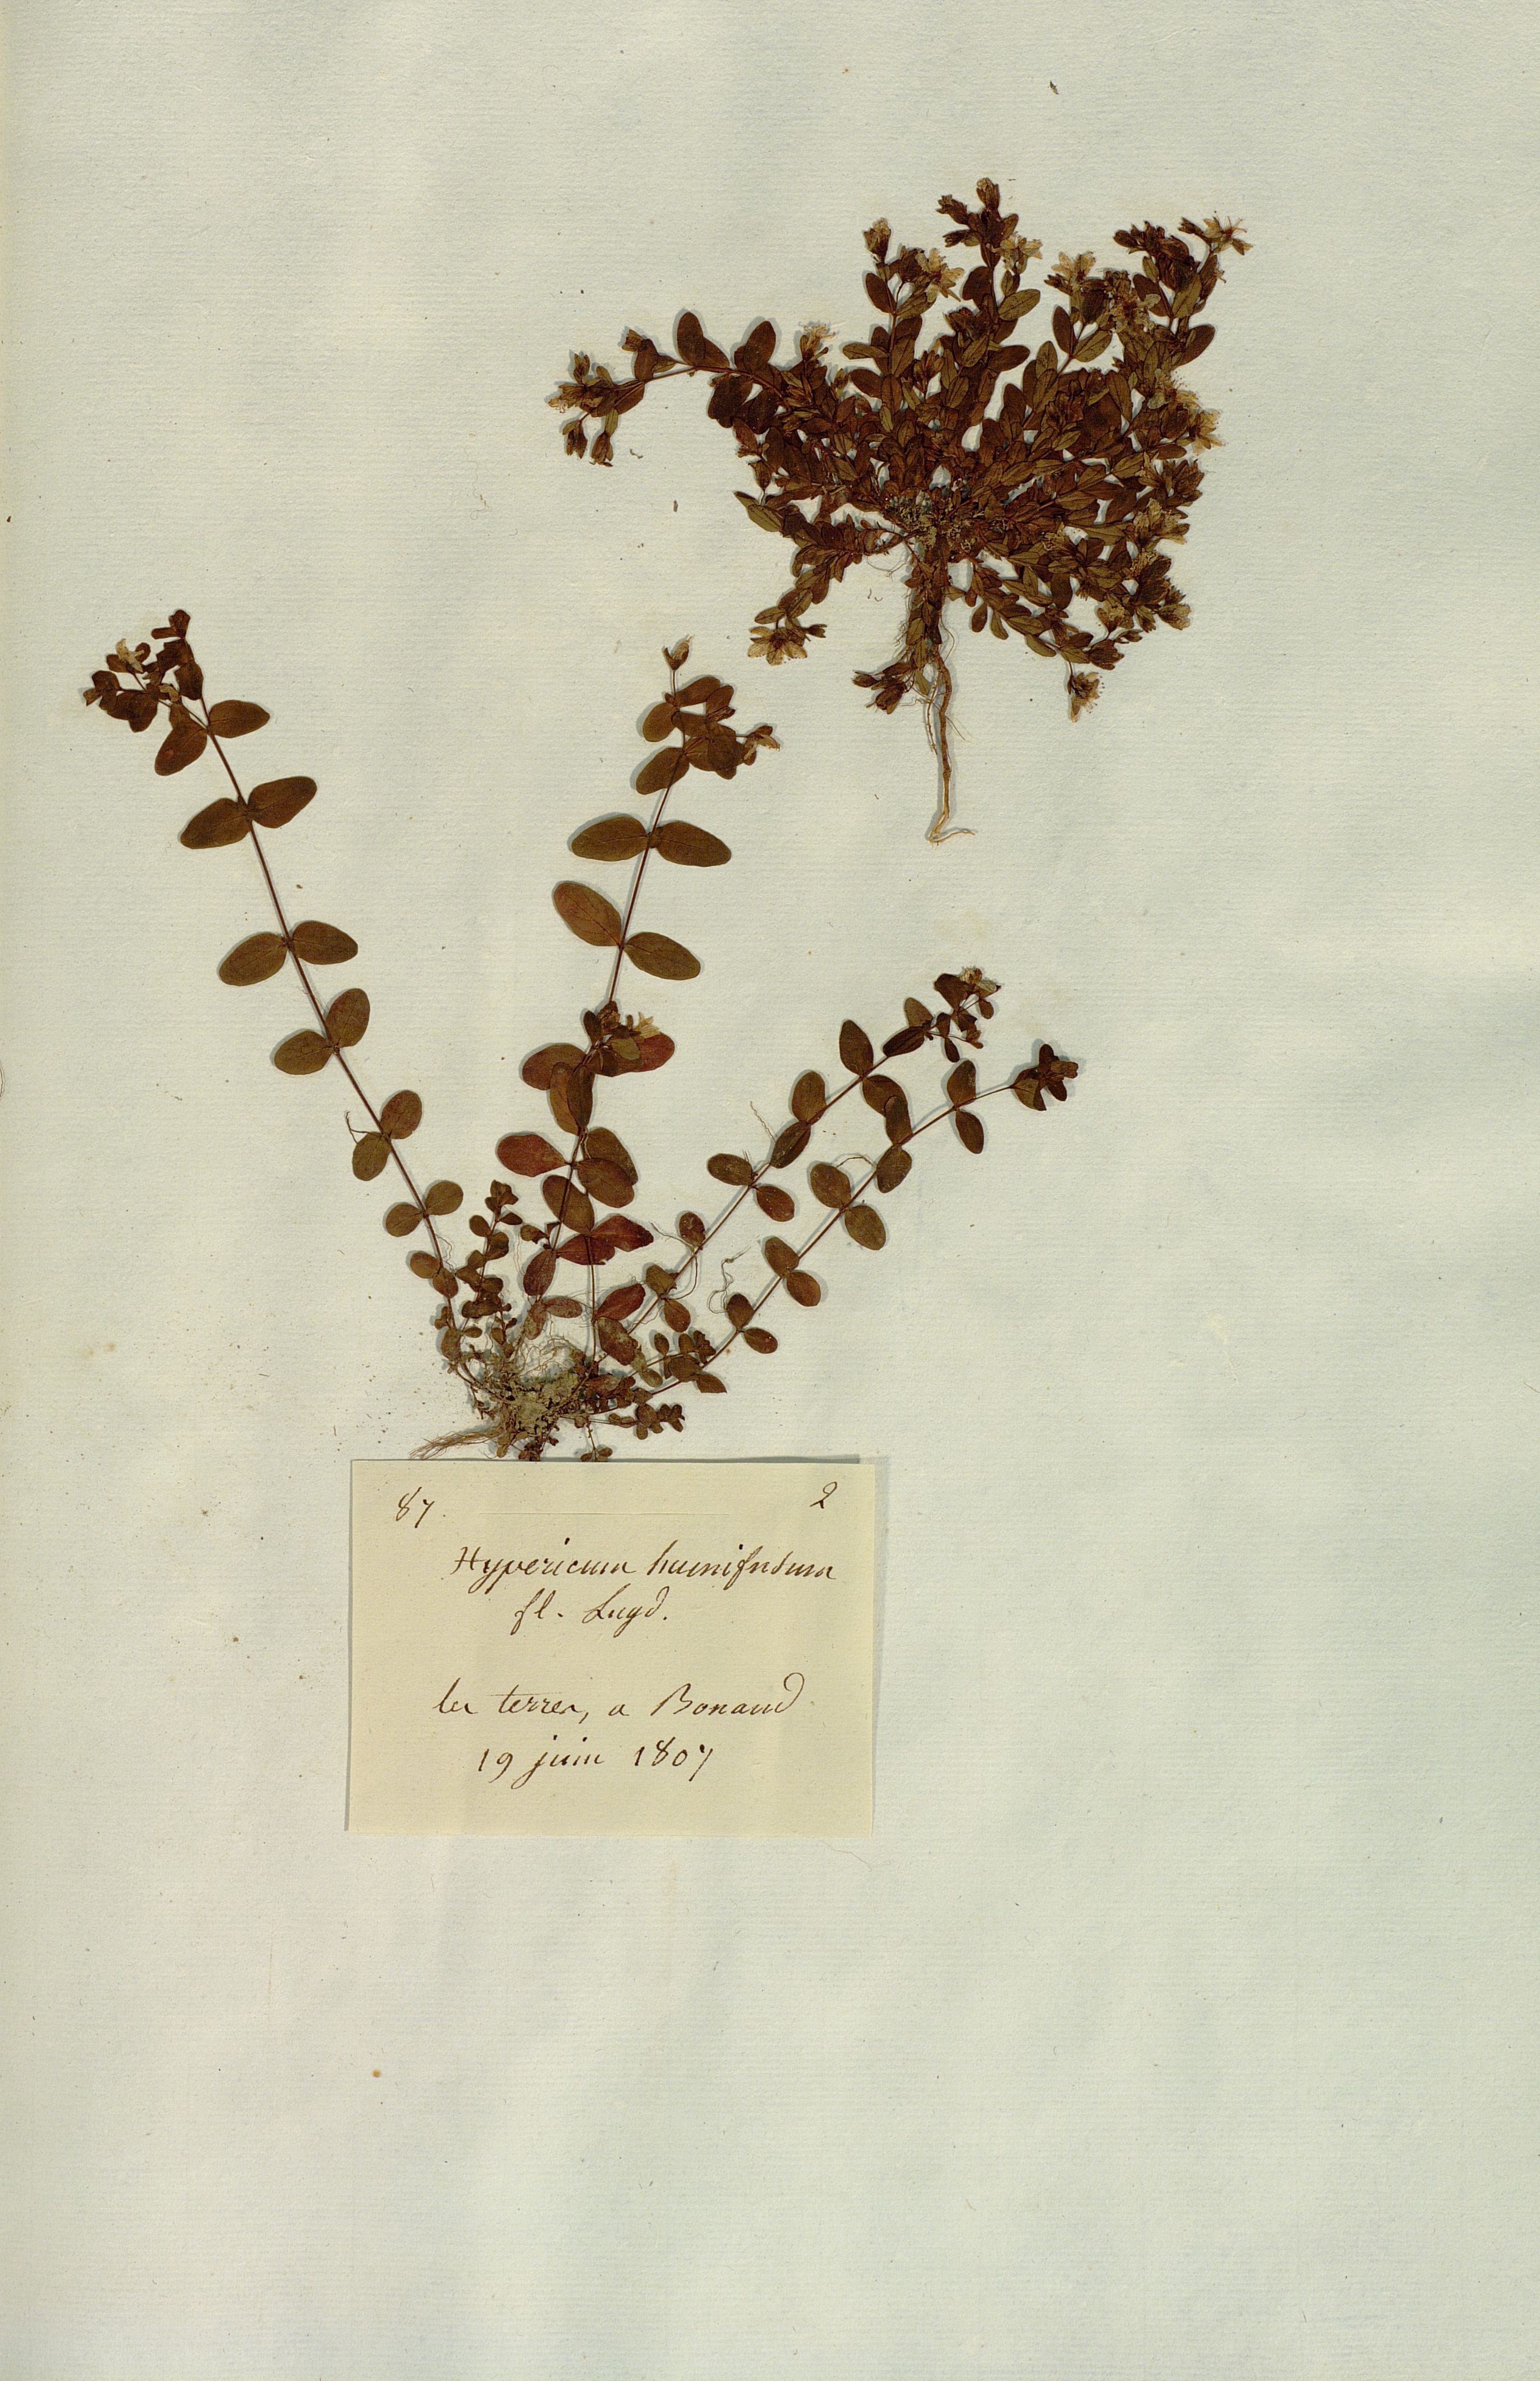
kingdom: Plantae
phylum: Tracheophyta
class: Magnoliopsida
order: Malpighiales
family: Hypericaceae
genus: Hypericum
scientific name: Hypericum humifusum
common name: Trailing st. john's-wort
